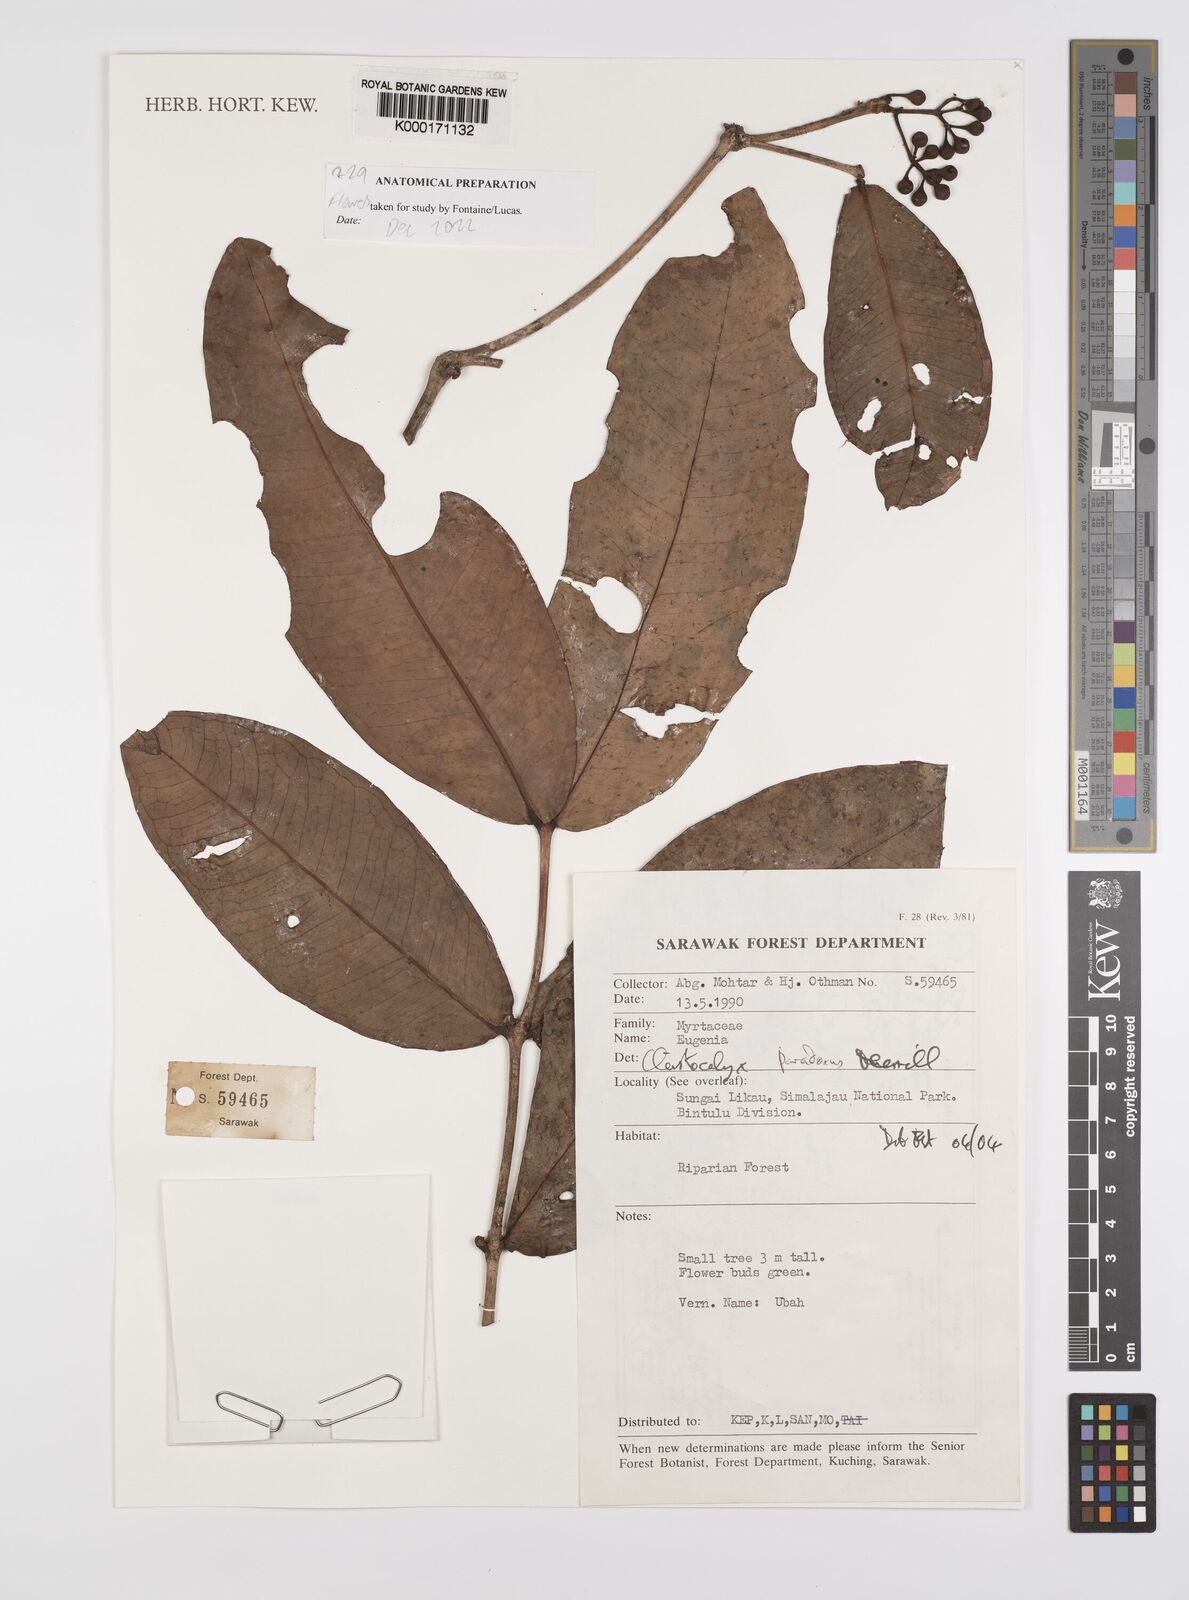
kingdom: Plantae
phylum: Tracheophyta
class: Magnoliopsida
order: Myrtales
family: Myrtaceae
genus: Syzygium
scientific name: Syzygium paradoxum
